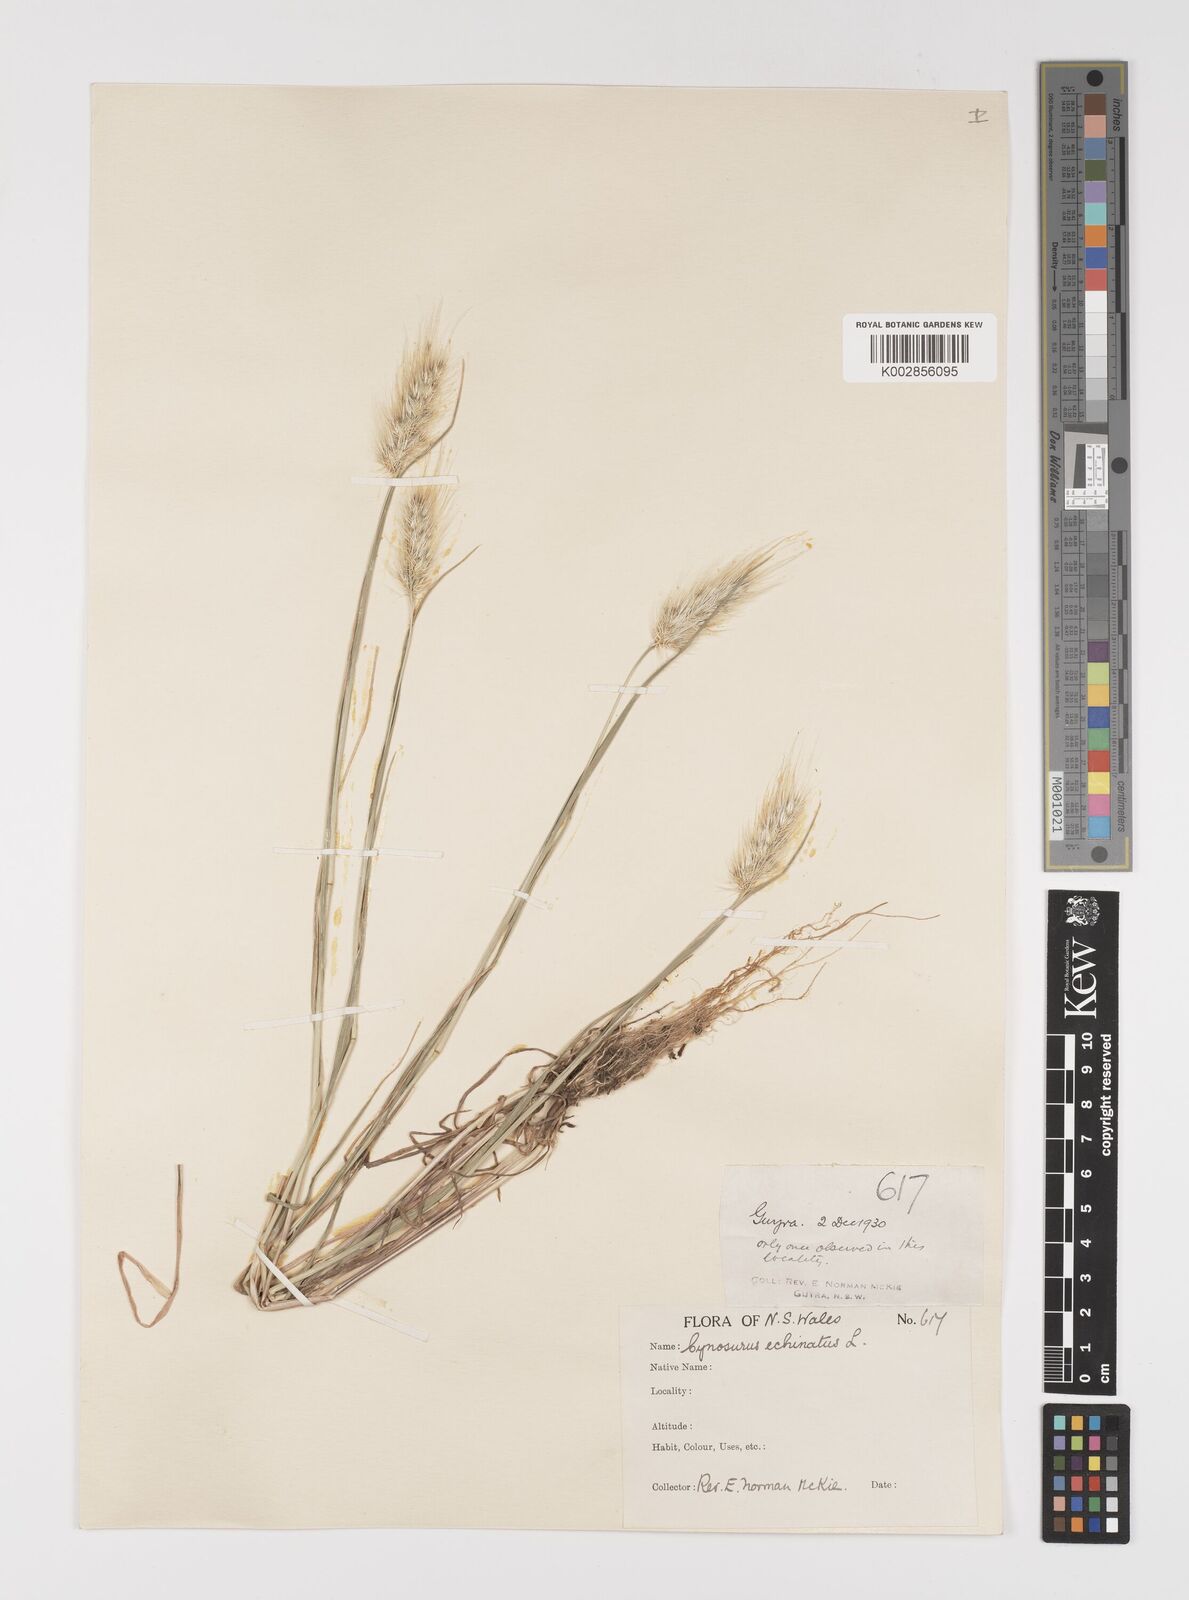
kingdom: Plantae
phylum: Tracheophyta
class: Liliopsida
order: Poales
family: Poaceae
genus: Cynosurus
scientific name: Cynosurus echinatus
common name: Rough dog's-tail
